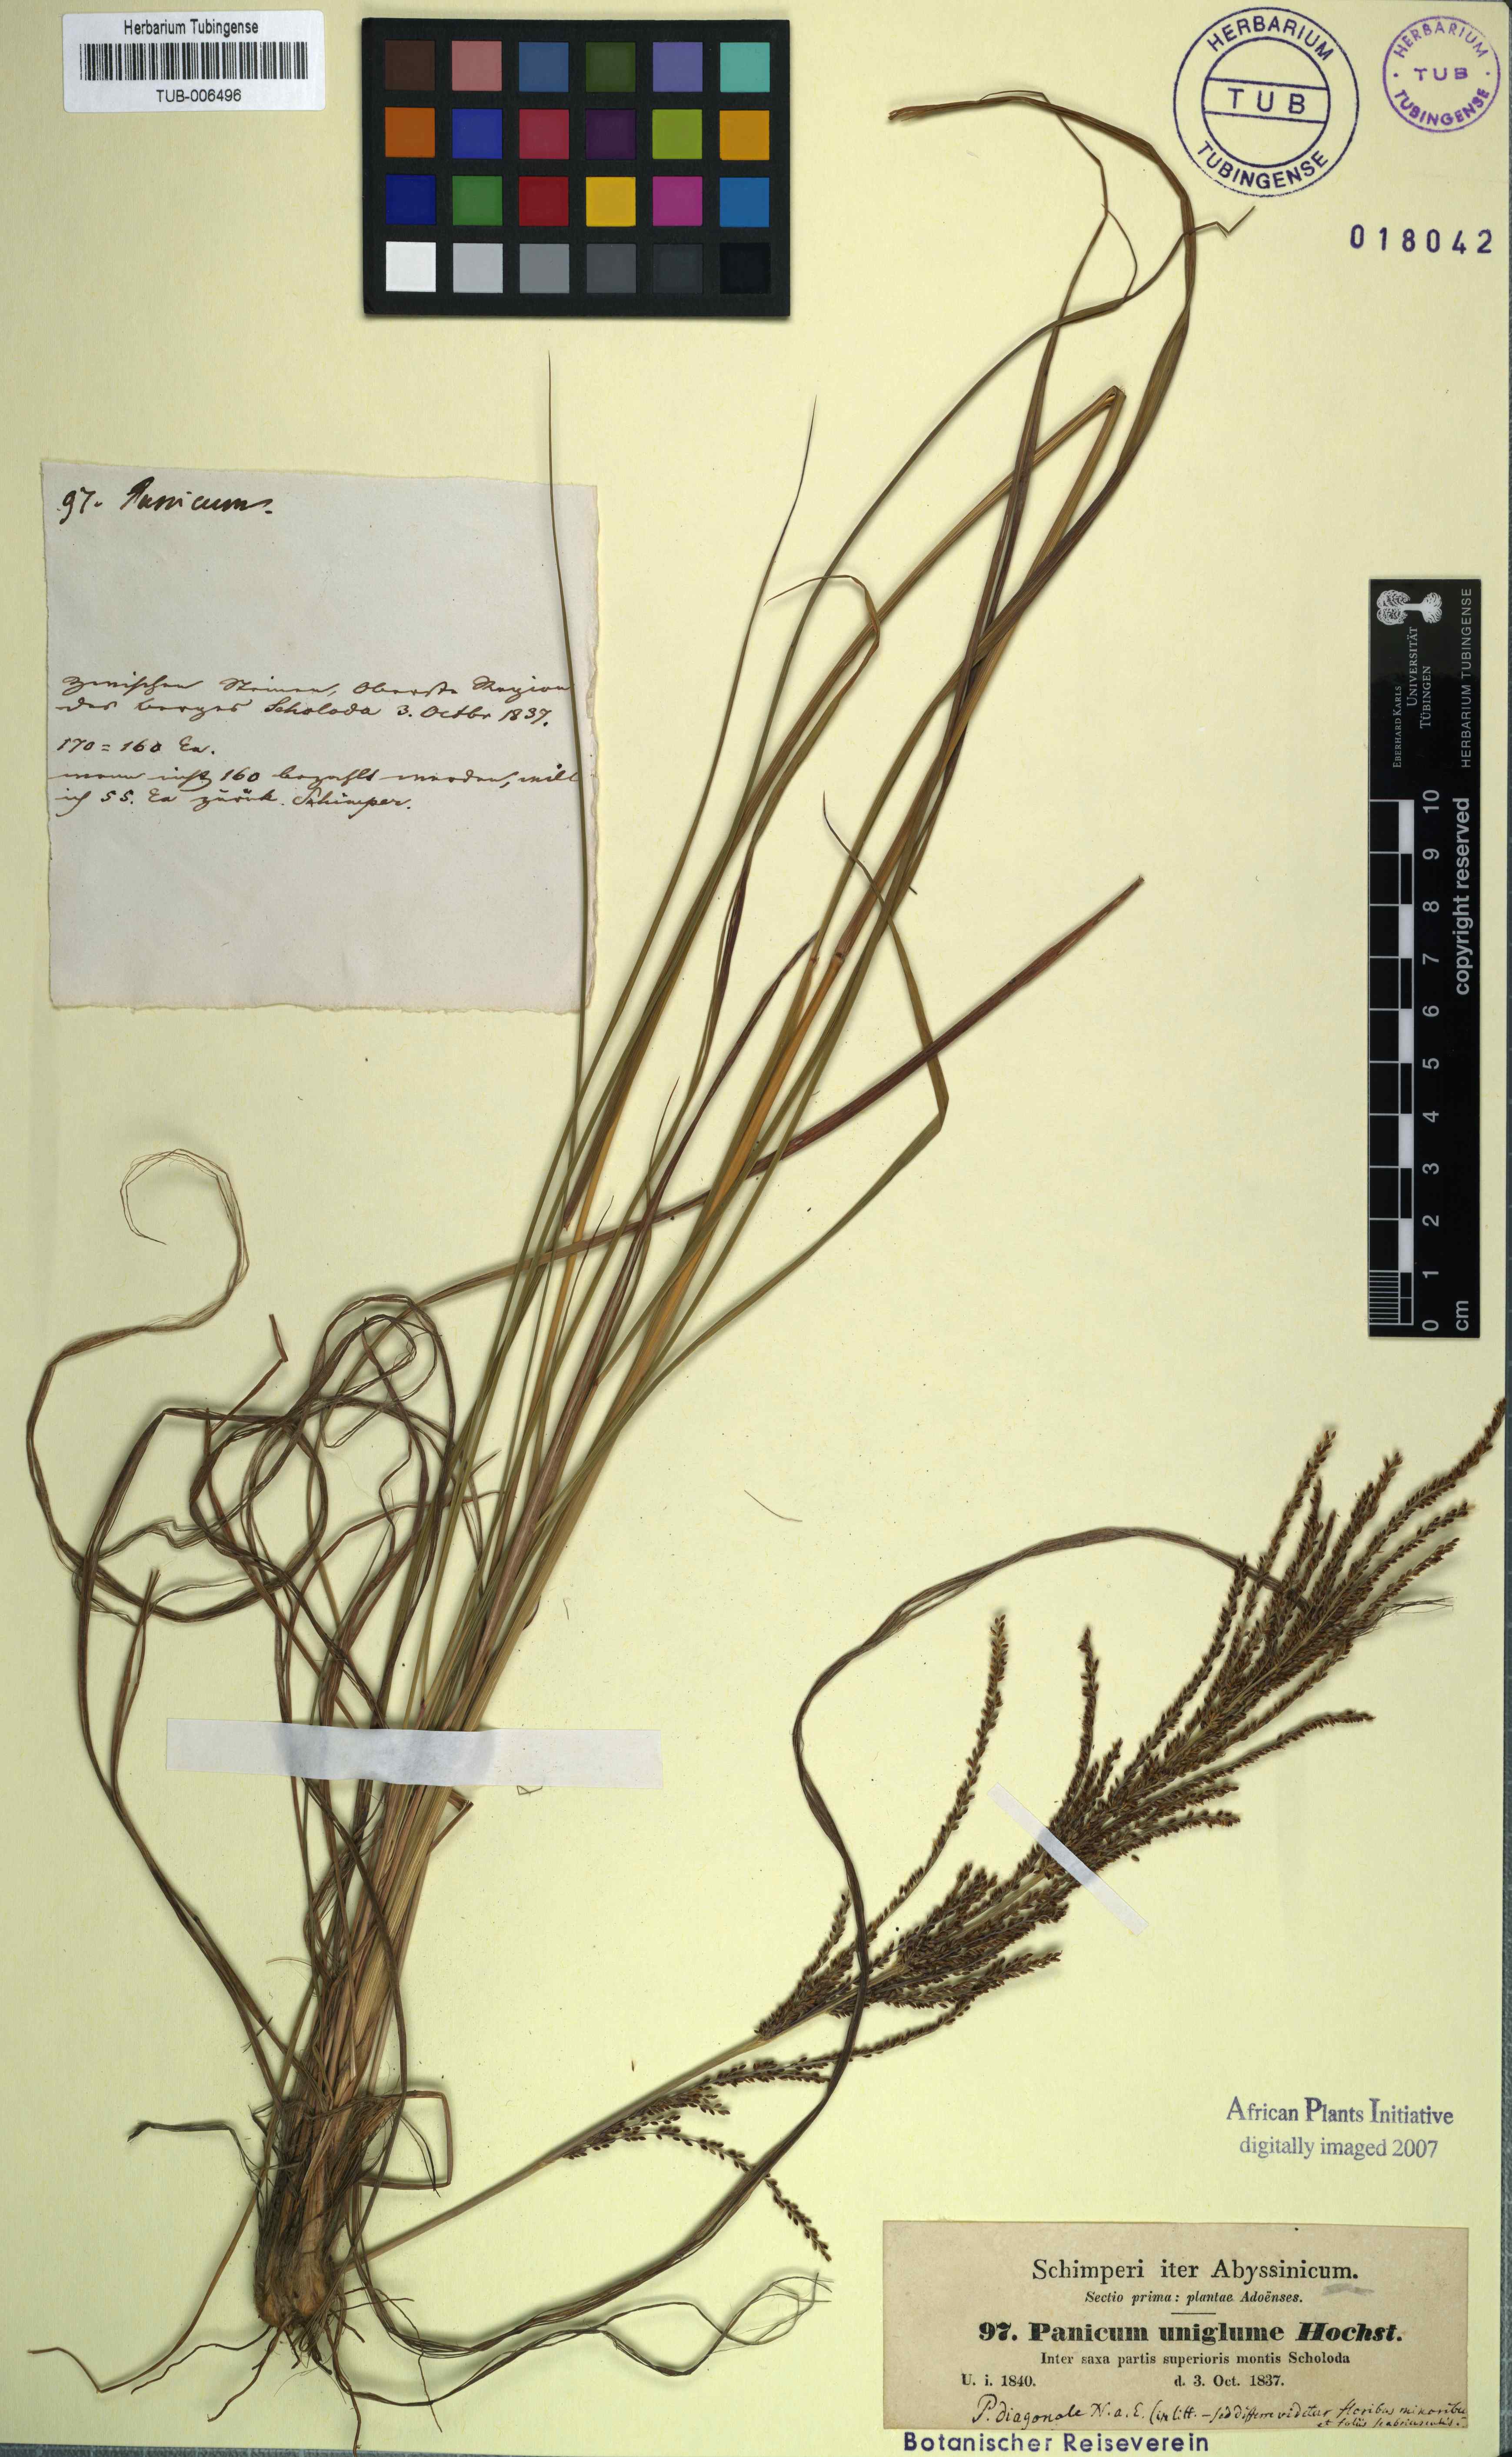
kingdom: Plantae
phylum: Tracheophyta
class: Liliopsida
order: Poales
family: Poaceae
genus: Panicum
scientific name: Panicum uniglume
